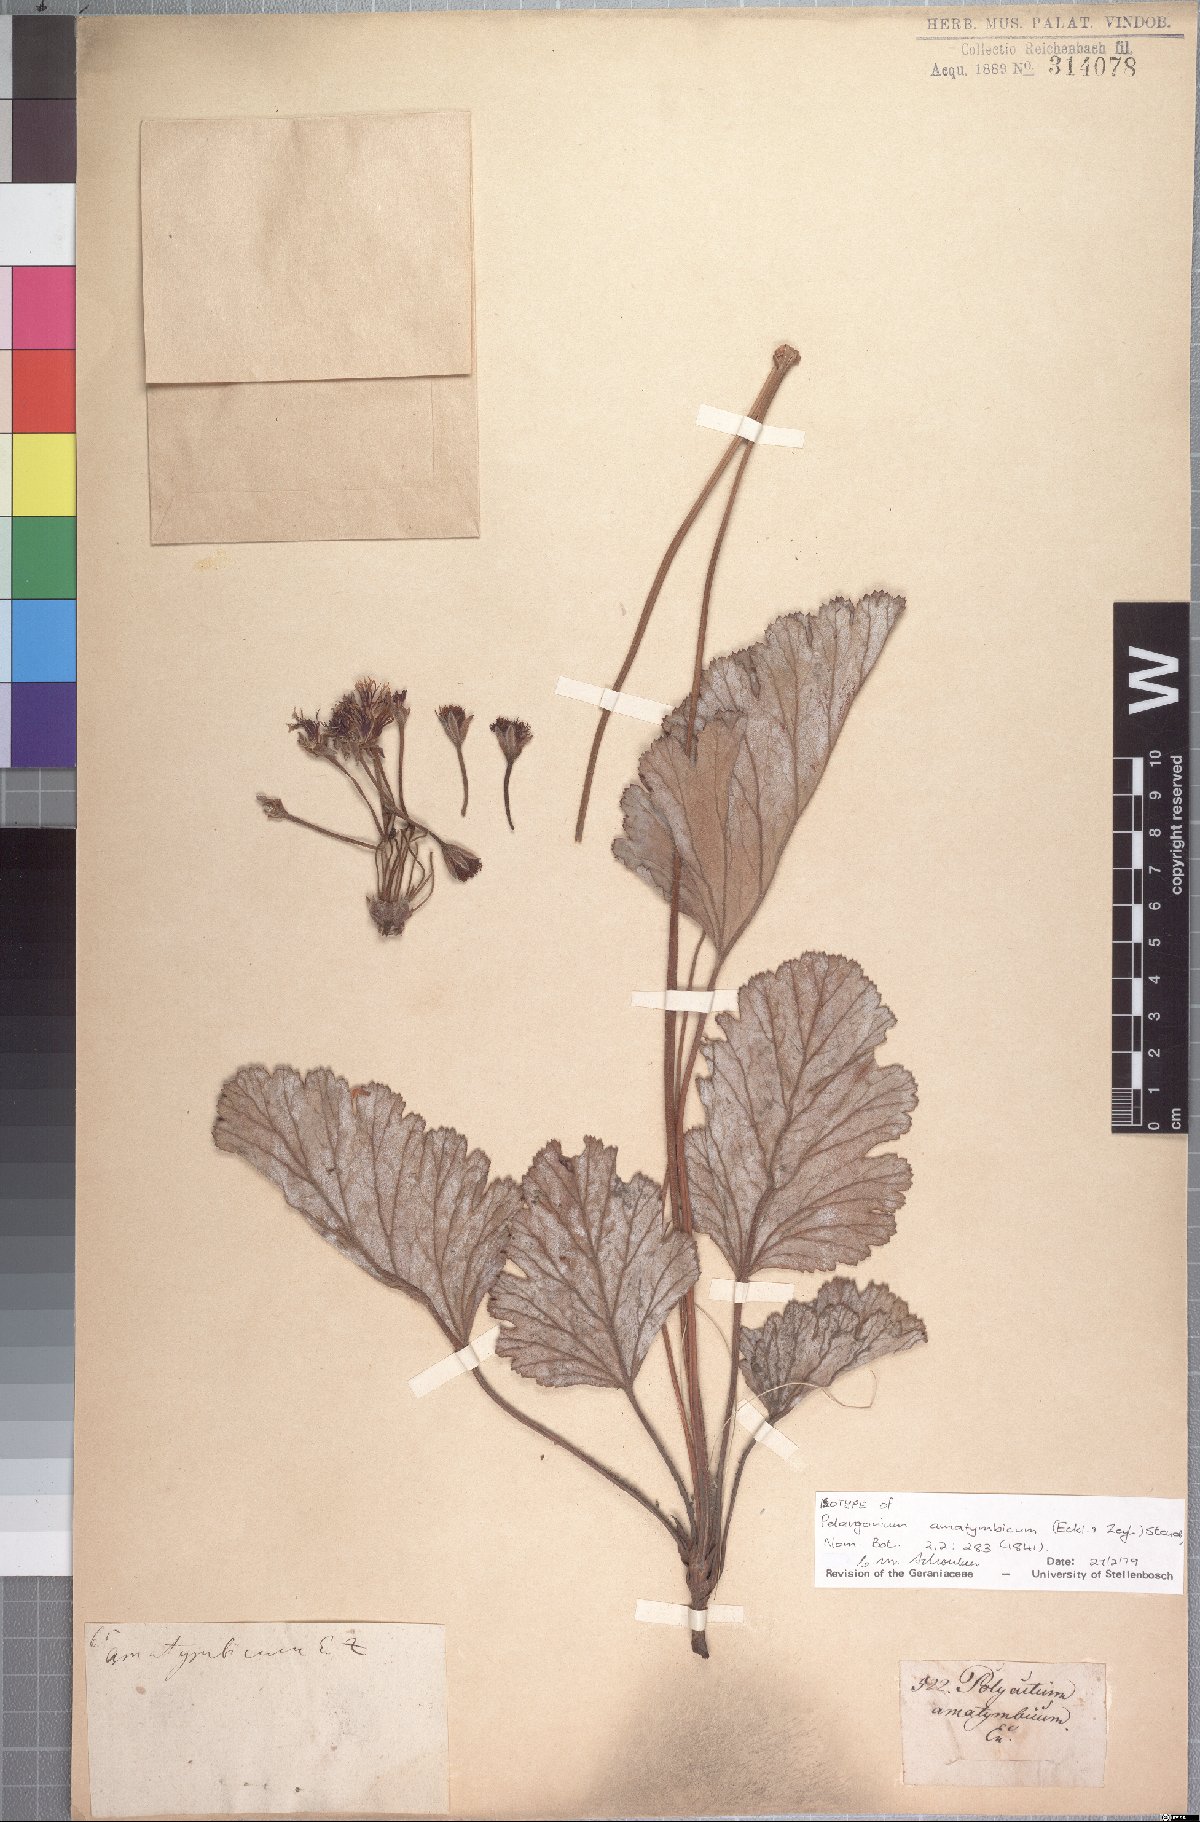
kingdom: Plantae
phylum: Tracheophyta
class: Magnoliopsida
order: Geraniales
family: Geraniaceae
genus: Pelargonium
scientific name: Pelargonium schizopetalum
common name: Divided-petal pelargonium
